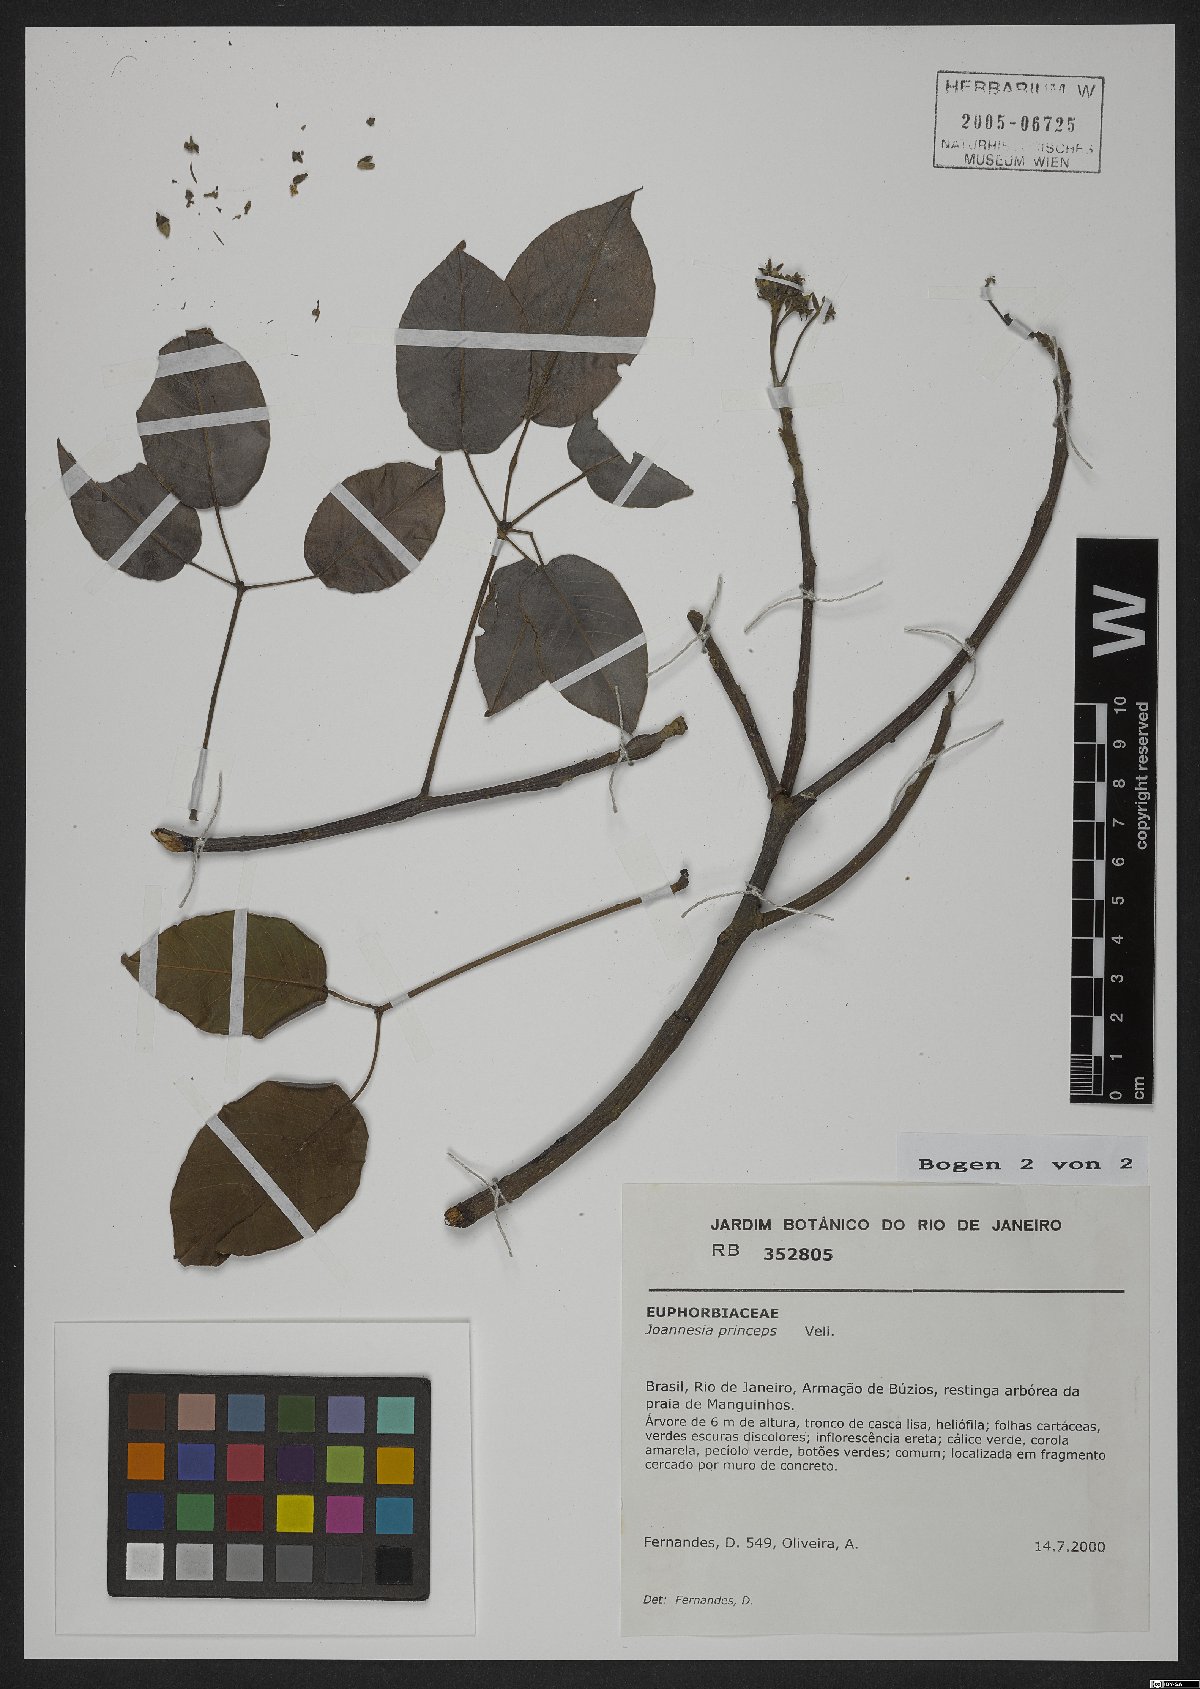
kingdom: Plantae
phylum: Tracheophyta
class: Magnoliopsida
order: Malpighiales
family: Euphorbiaceae
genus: Joannesia
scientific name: Joannesia princeps
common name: Arara nut-tree
